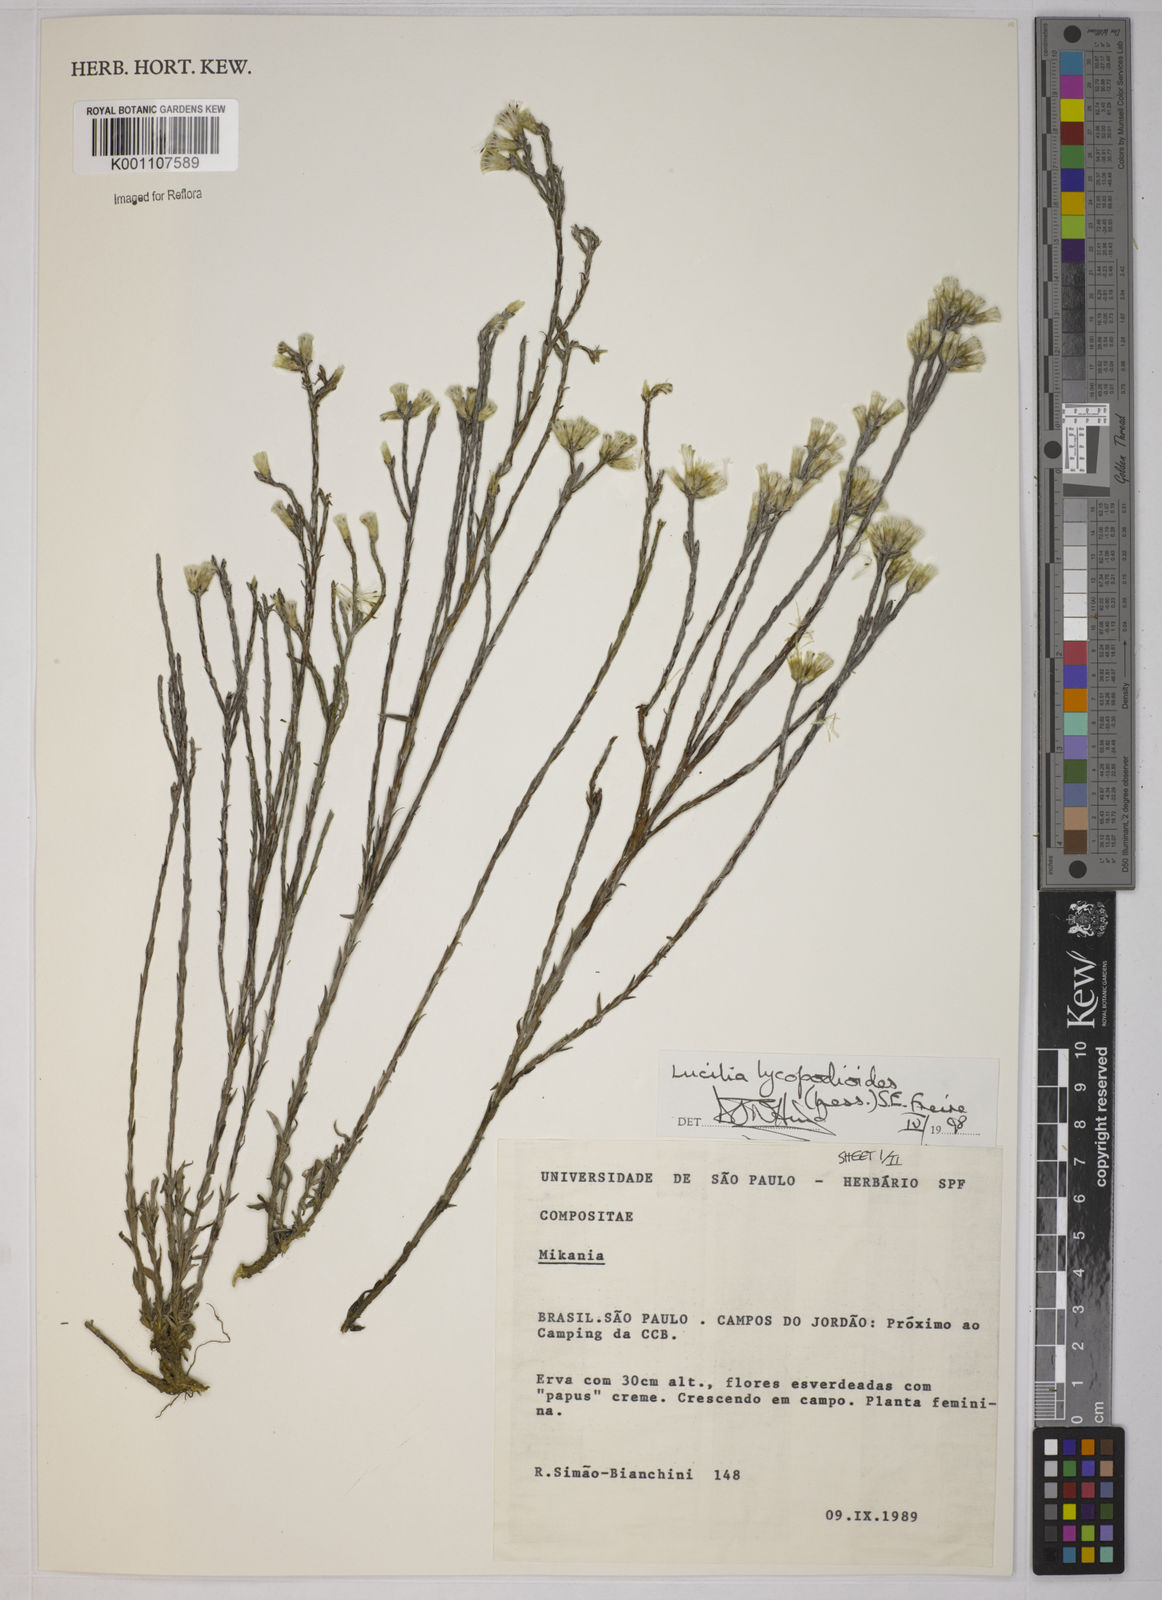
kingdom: Plantae
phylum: Tracheophyta
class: Magnoliopsida
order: Asterales
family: Asteraceae
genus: Lucilia
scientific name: Lucilia lycopodioides
